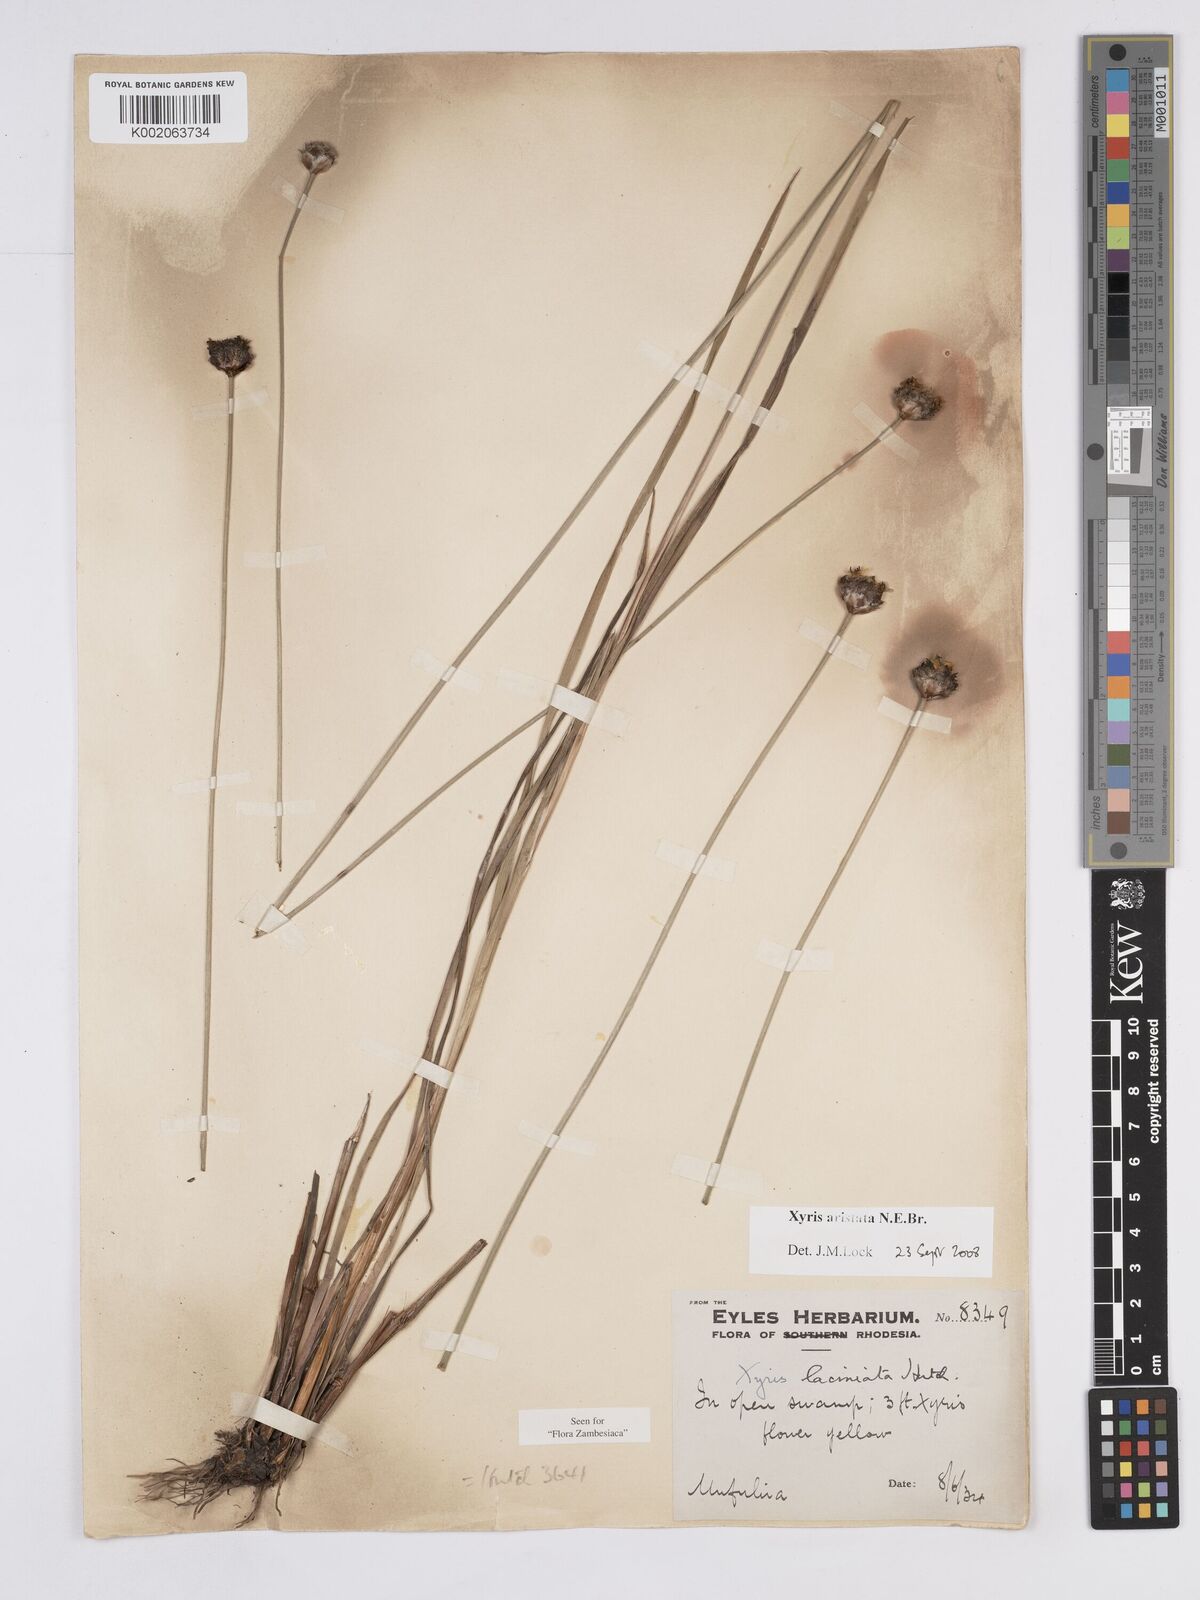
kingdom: Plantae
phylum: Tracheophyta
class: Liliopsida
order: Poales
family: Xyridaceae
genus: Xyris
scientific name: Xyris aristata
